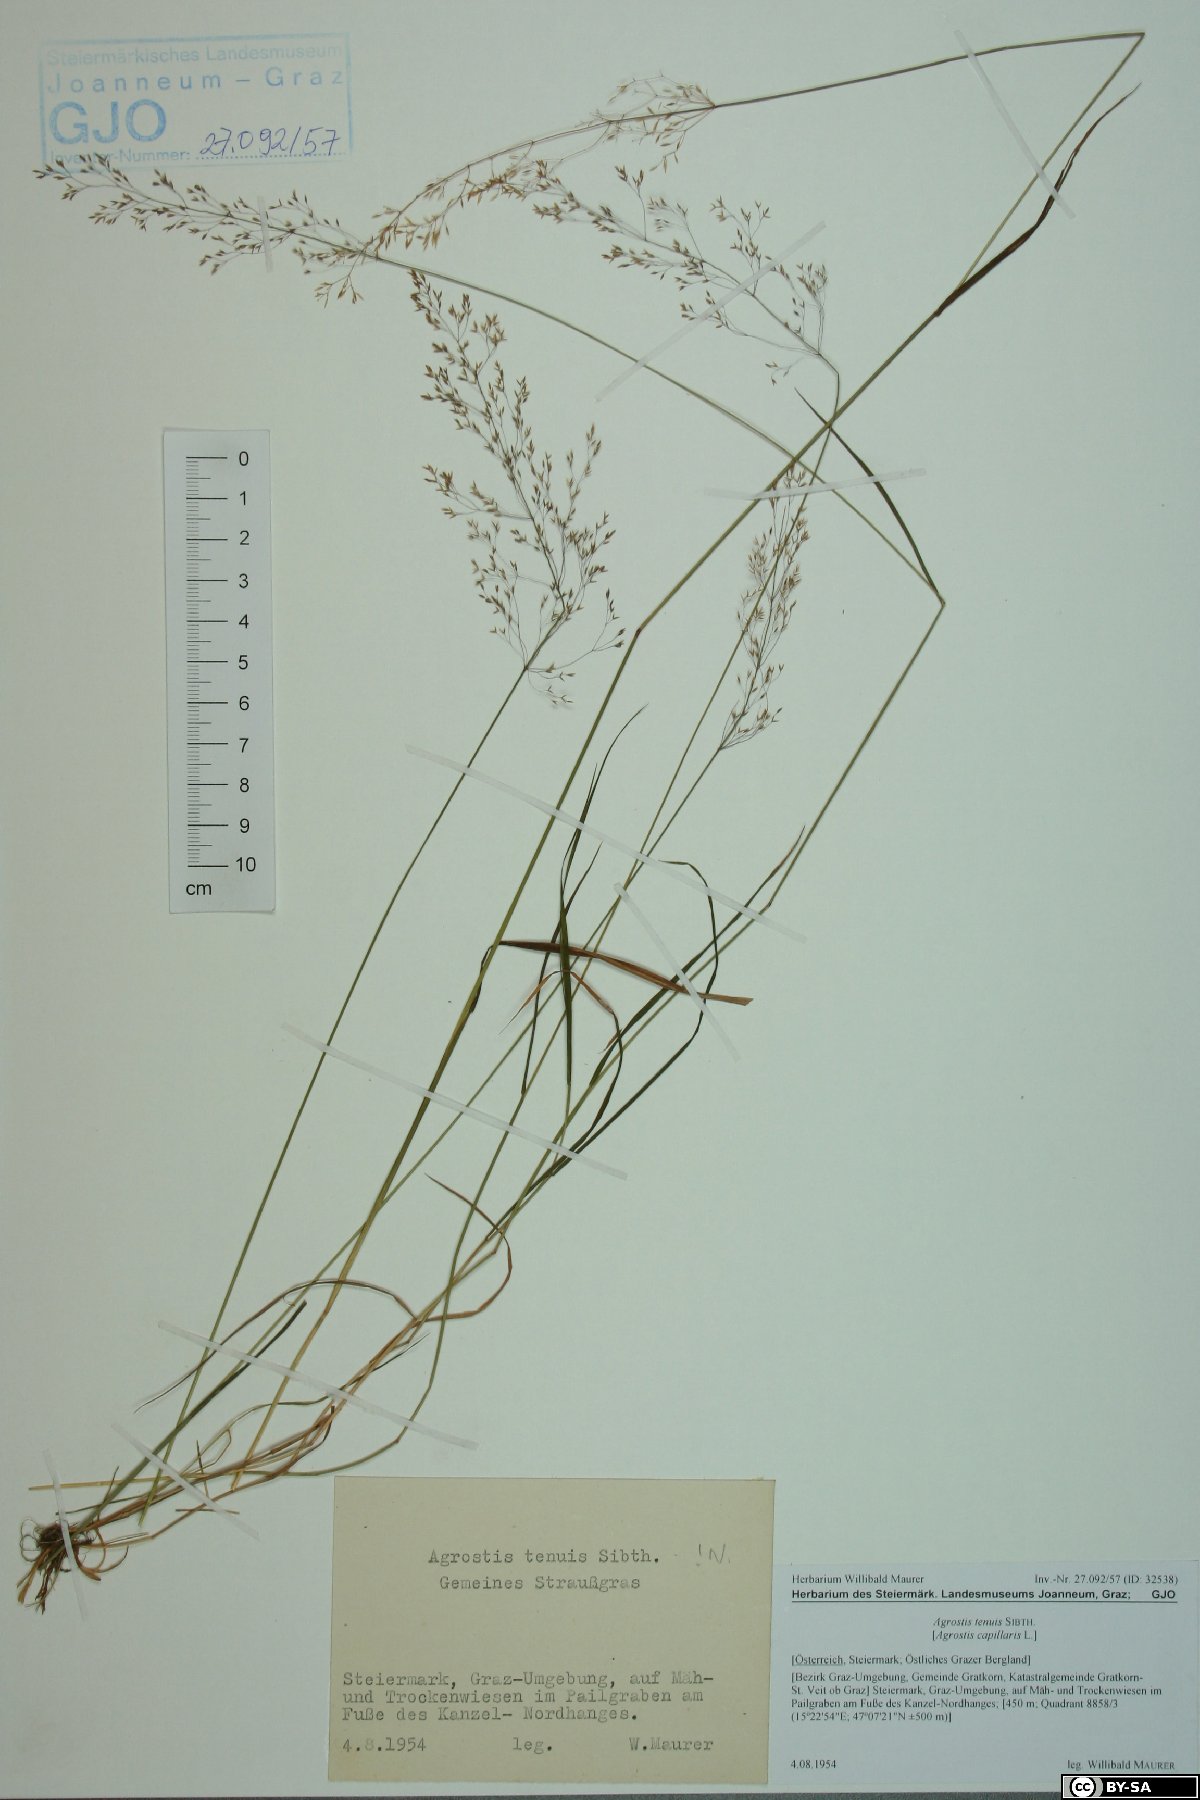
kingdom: Plantae
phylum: Tracheophyta
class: Liliopsida
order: Poales
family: Poaceae
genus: Agrostis
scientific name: Agrostis capillaris
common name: Colonial bentgrass
